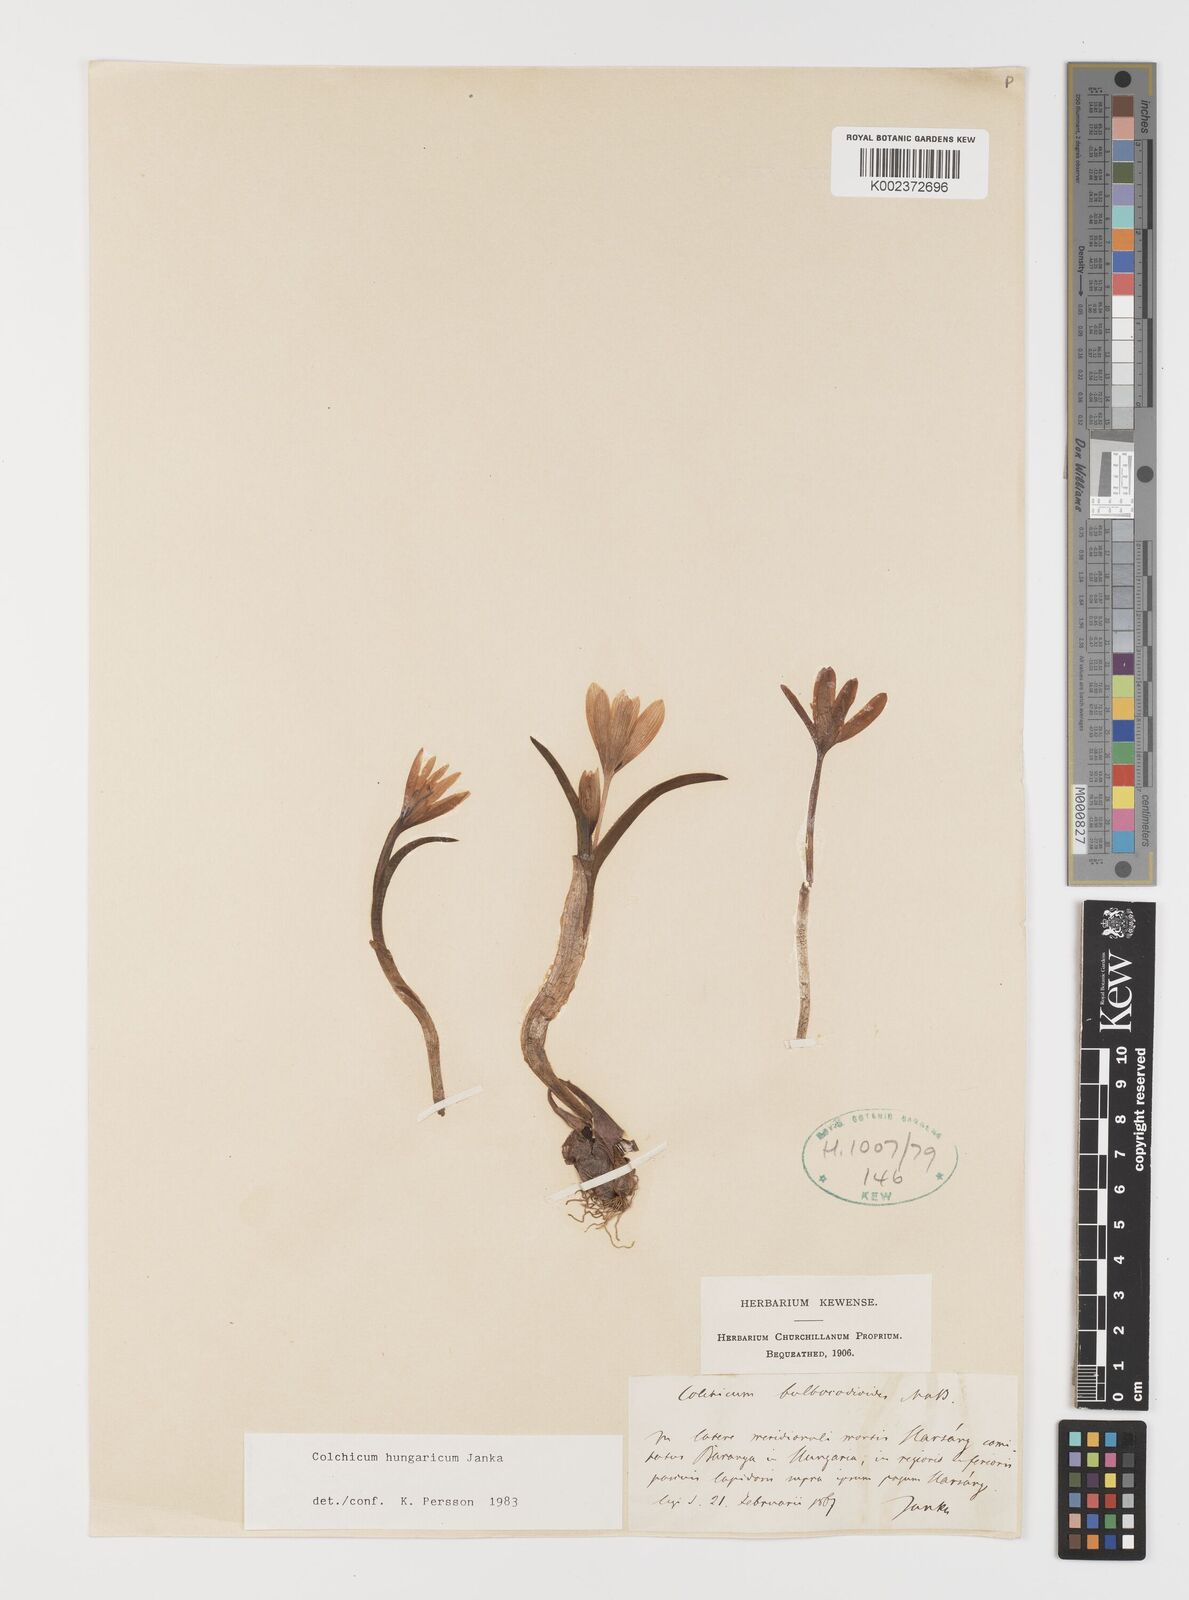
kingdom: Plantae
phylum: Tracheophyta
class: Liliopsida
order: Liliales
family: Colchicaceae
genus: Colchicum
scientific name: Colchicum hungaricum
